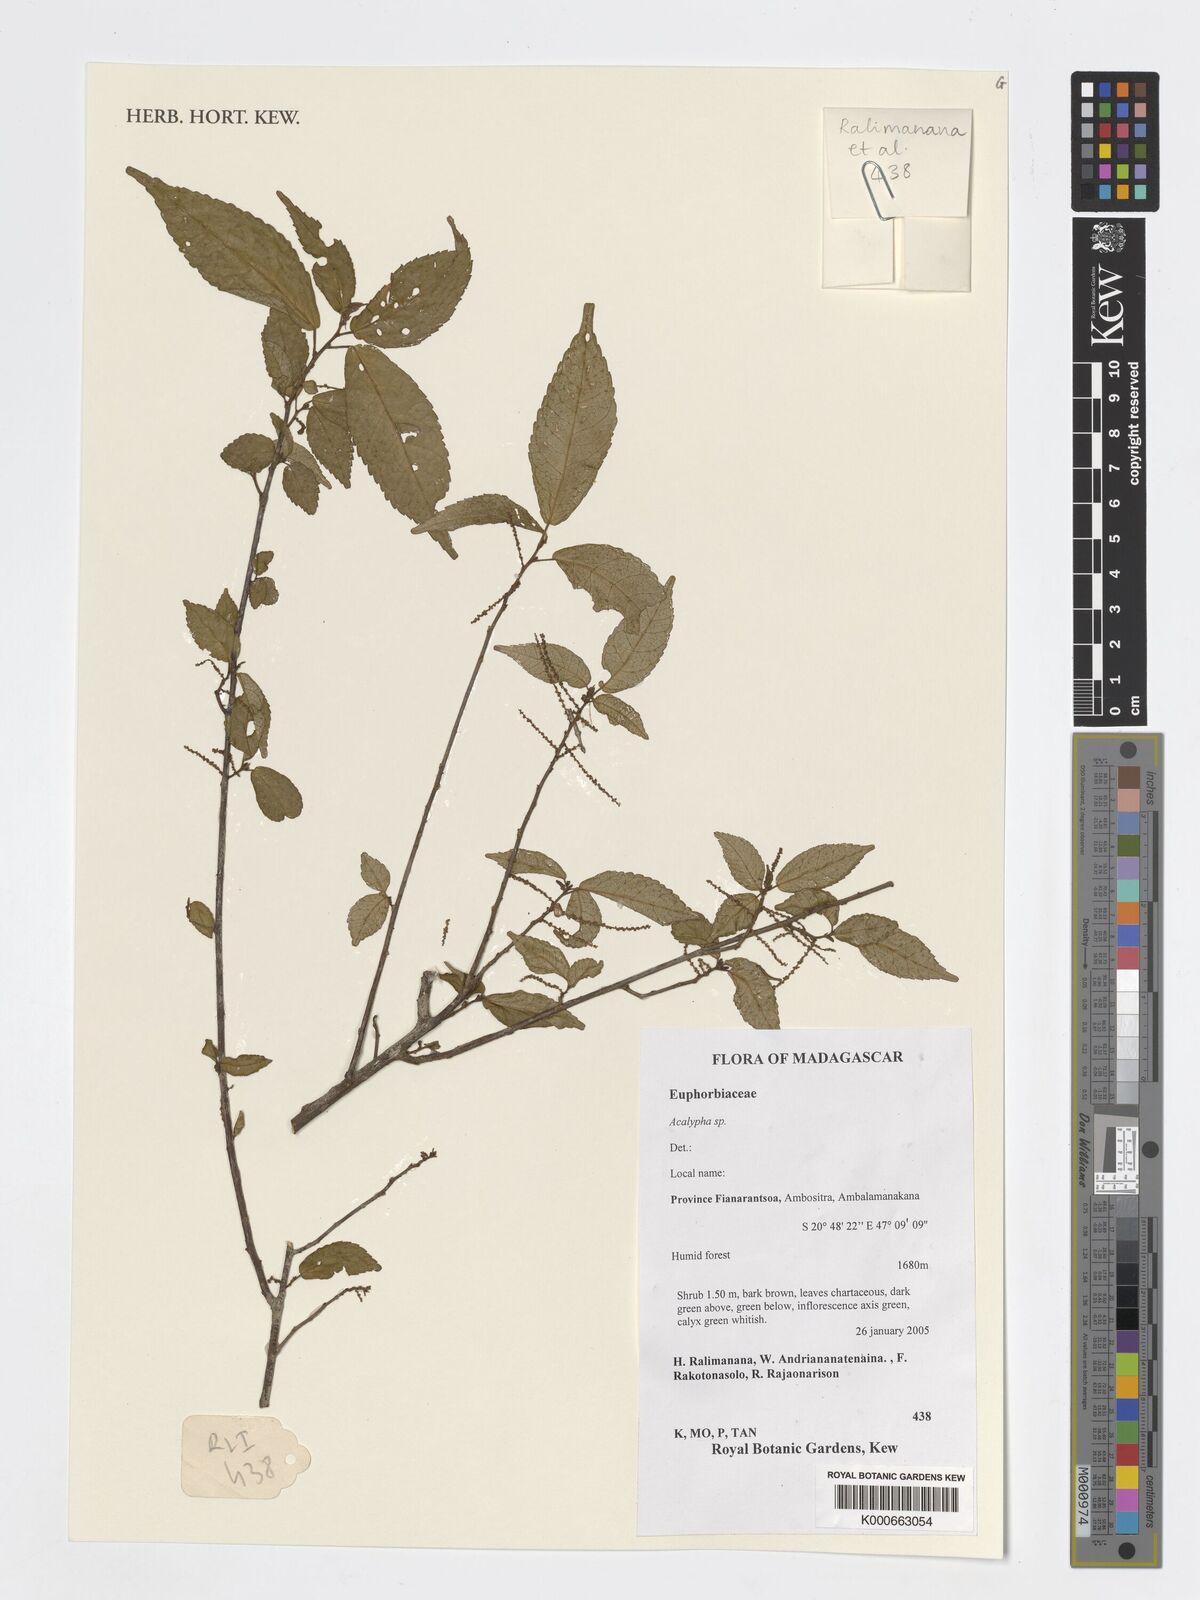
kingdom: Plantae
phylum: Tracheophyta
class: Magnoliopsida
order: Malpighiales
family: Euphorbiaceae
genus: Acalypha
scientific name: Acalypha
